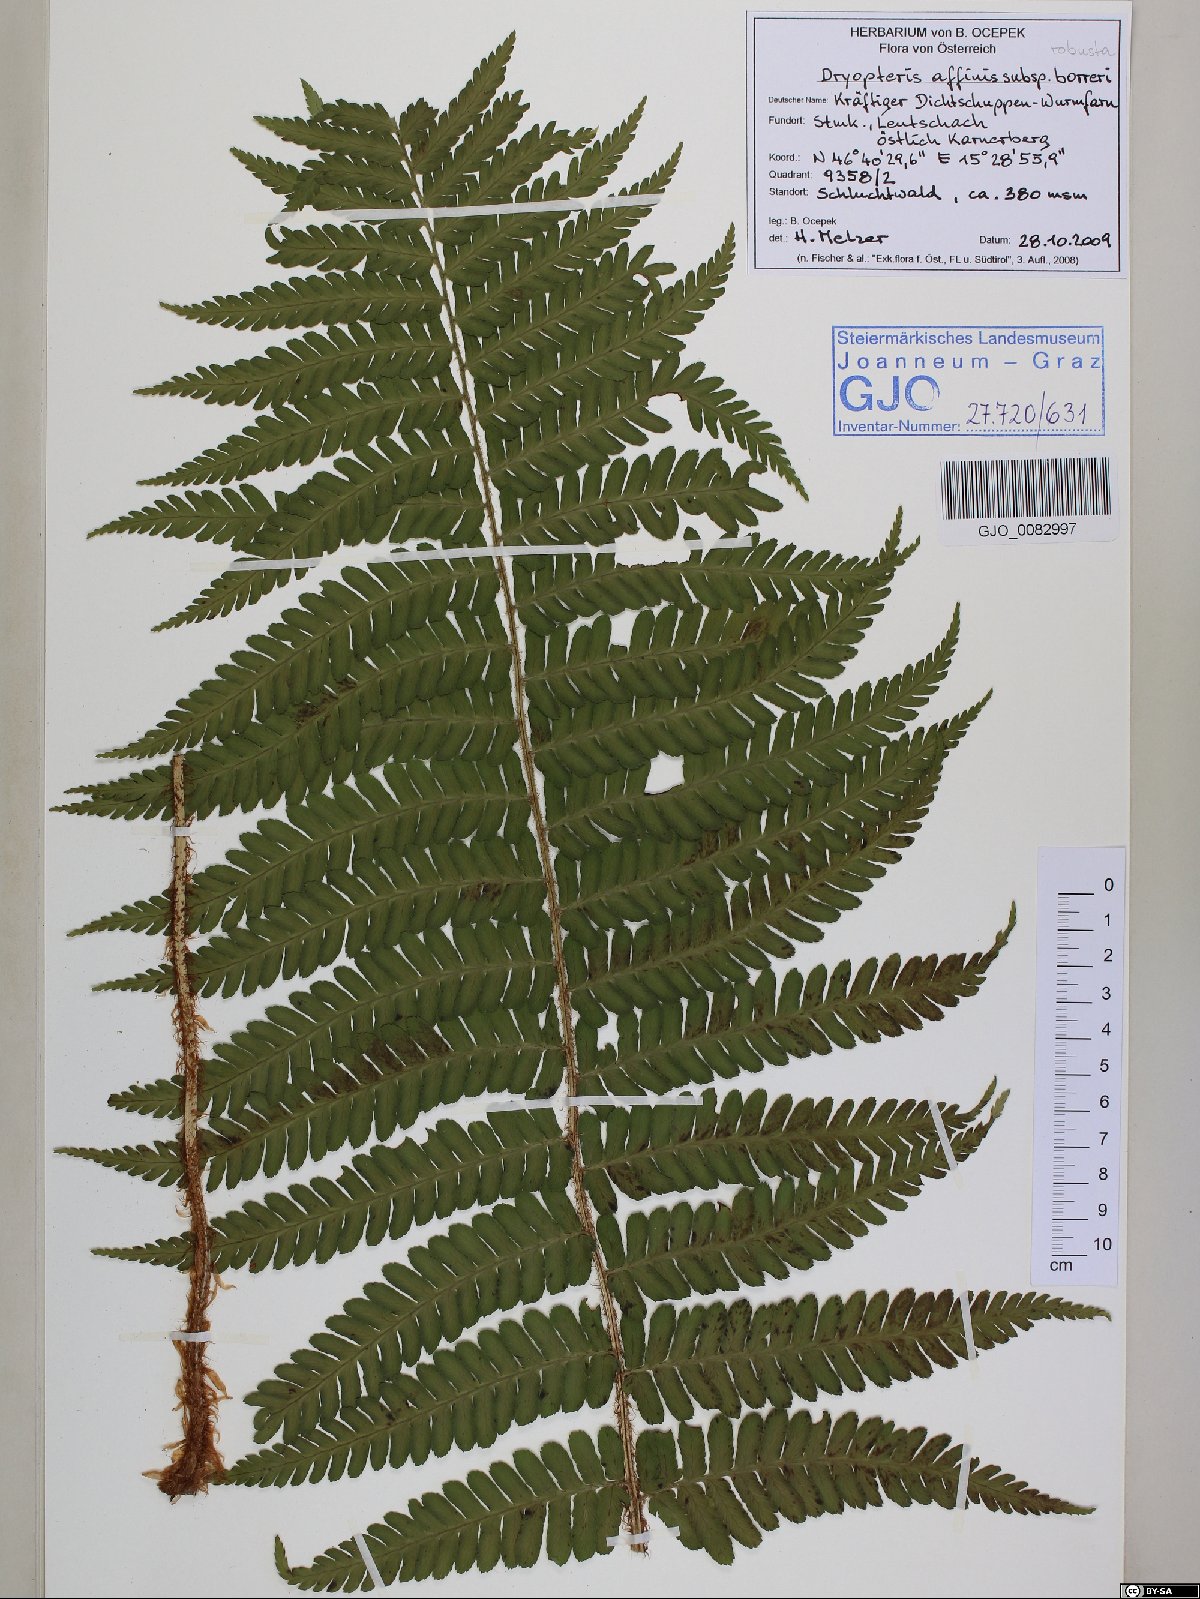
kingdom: Plantae
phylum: Tracheophyta
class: Polypodiopsida
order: Polypodiales
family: Dryopteridaceae
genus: Dryopteris
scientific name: Dryopteris borreri
